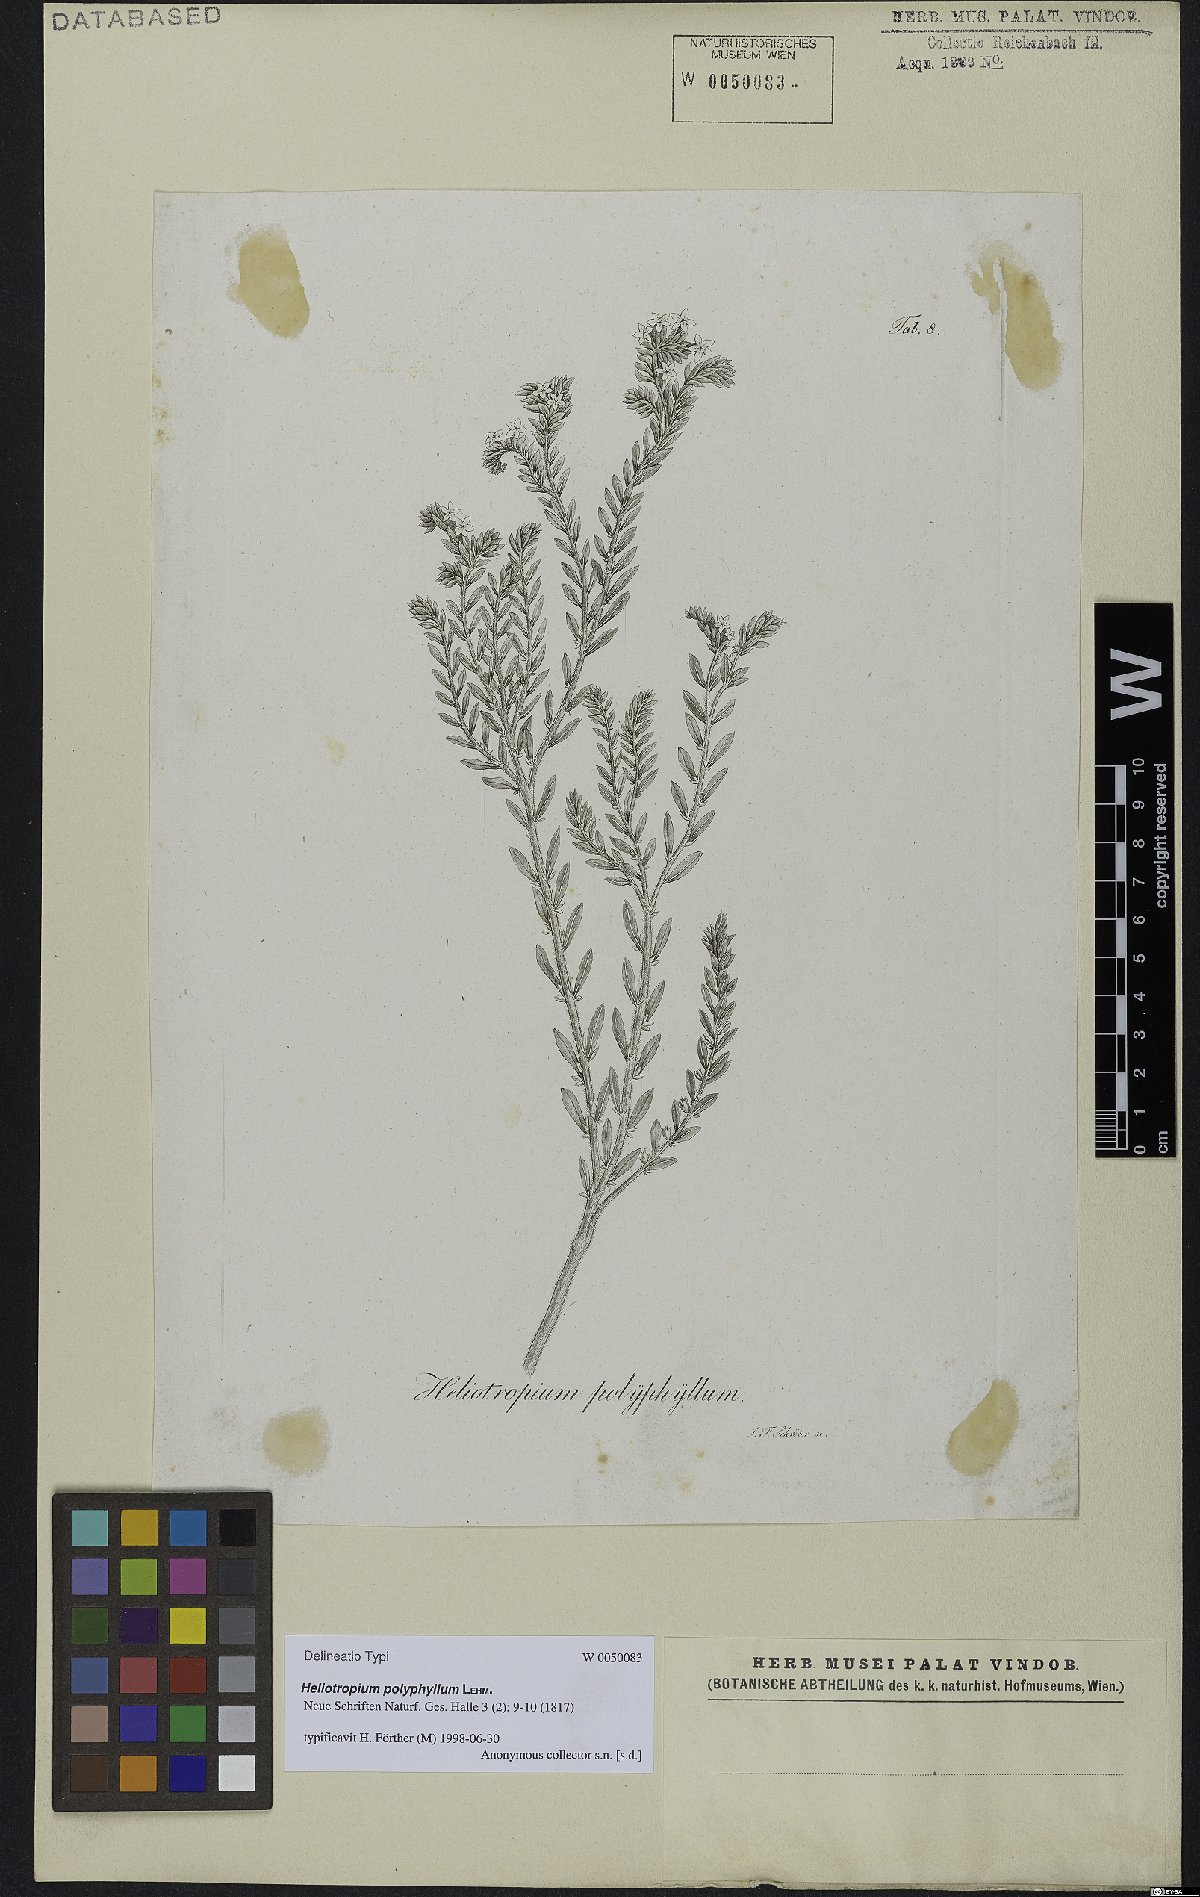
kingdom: Plantae
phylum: Tracheophyta
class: Magnoliopsida
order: Boraginales
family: Heliotropiaceae
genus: Euploca
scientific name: Euploca polyphylla
